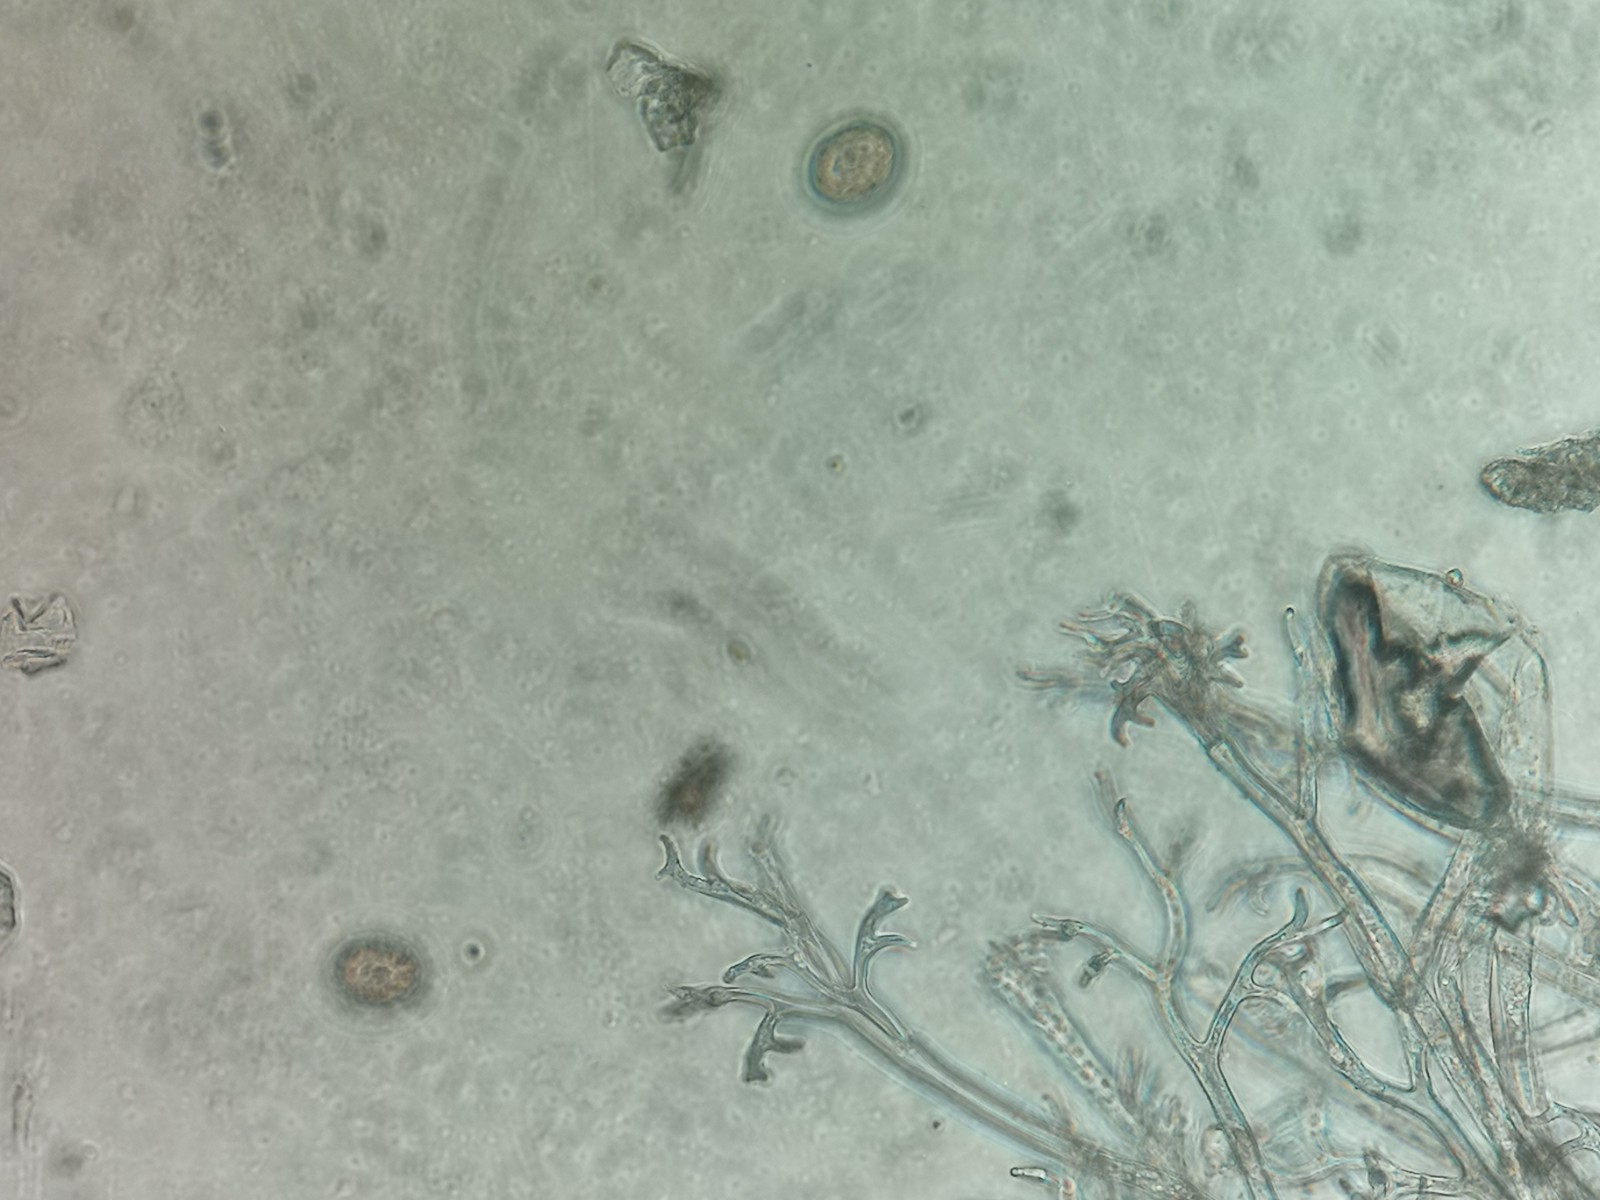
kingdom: Chromista
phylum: Oomycota
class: Peronosporea
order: Peronosporales
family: Peronosporaceae
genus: Peronospora
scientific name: Peronospora farinosa
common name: Beet downy mildew
